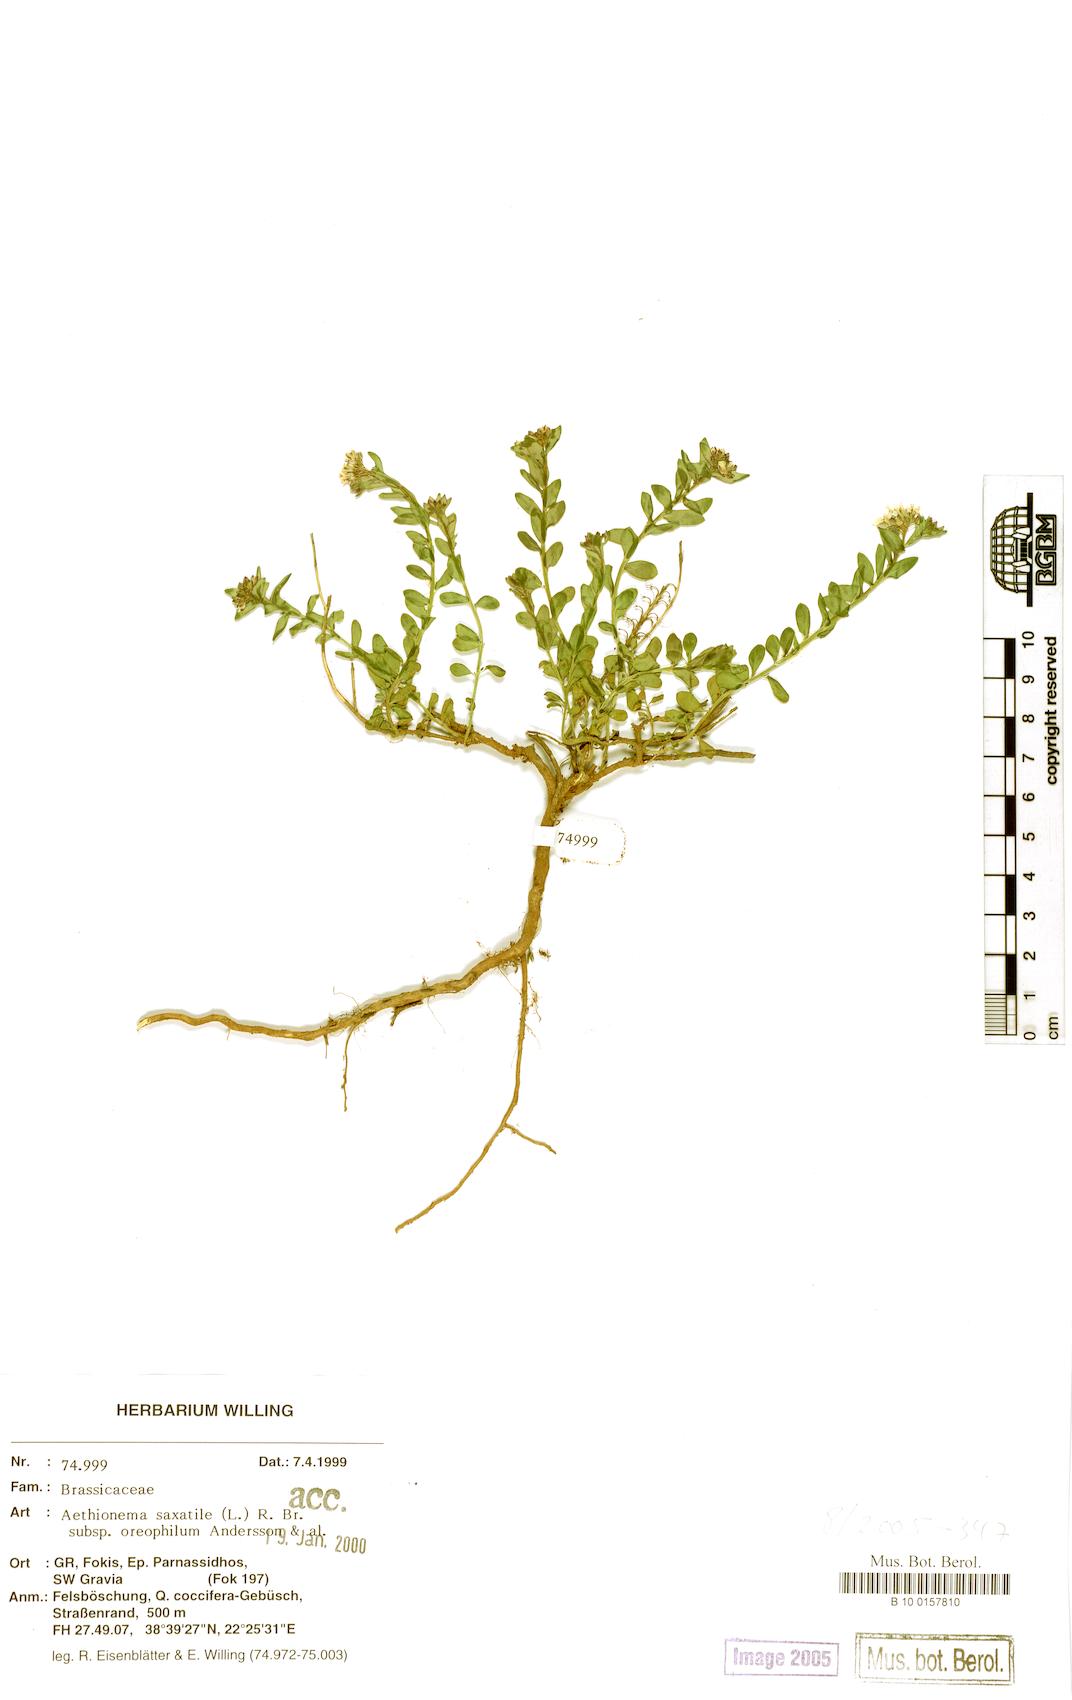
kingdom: Plantae
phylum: Tracheophyta
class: Magnoliopsida
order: Brassicales
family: Brassicaceae
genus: Aethionema
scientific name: Aethionema saxatile
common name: Burnt candytuft
